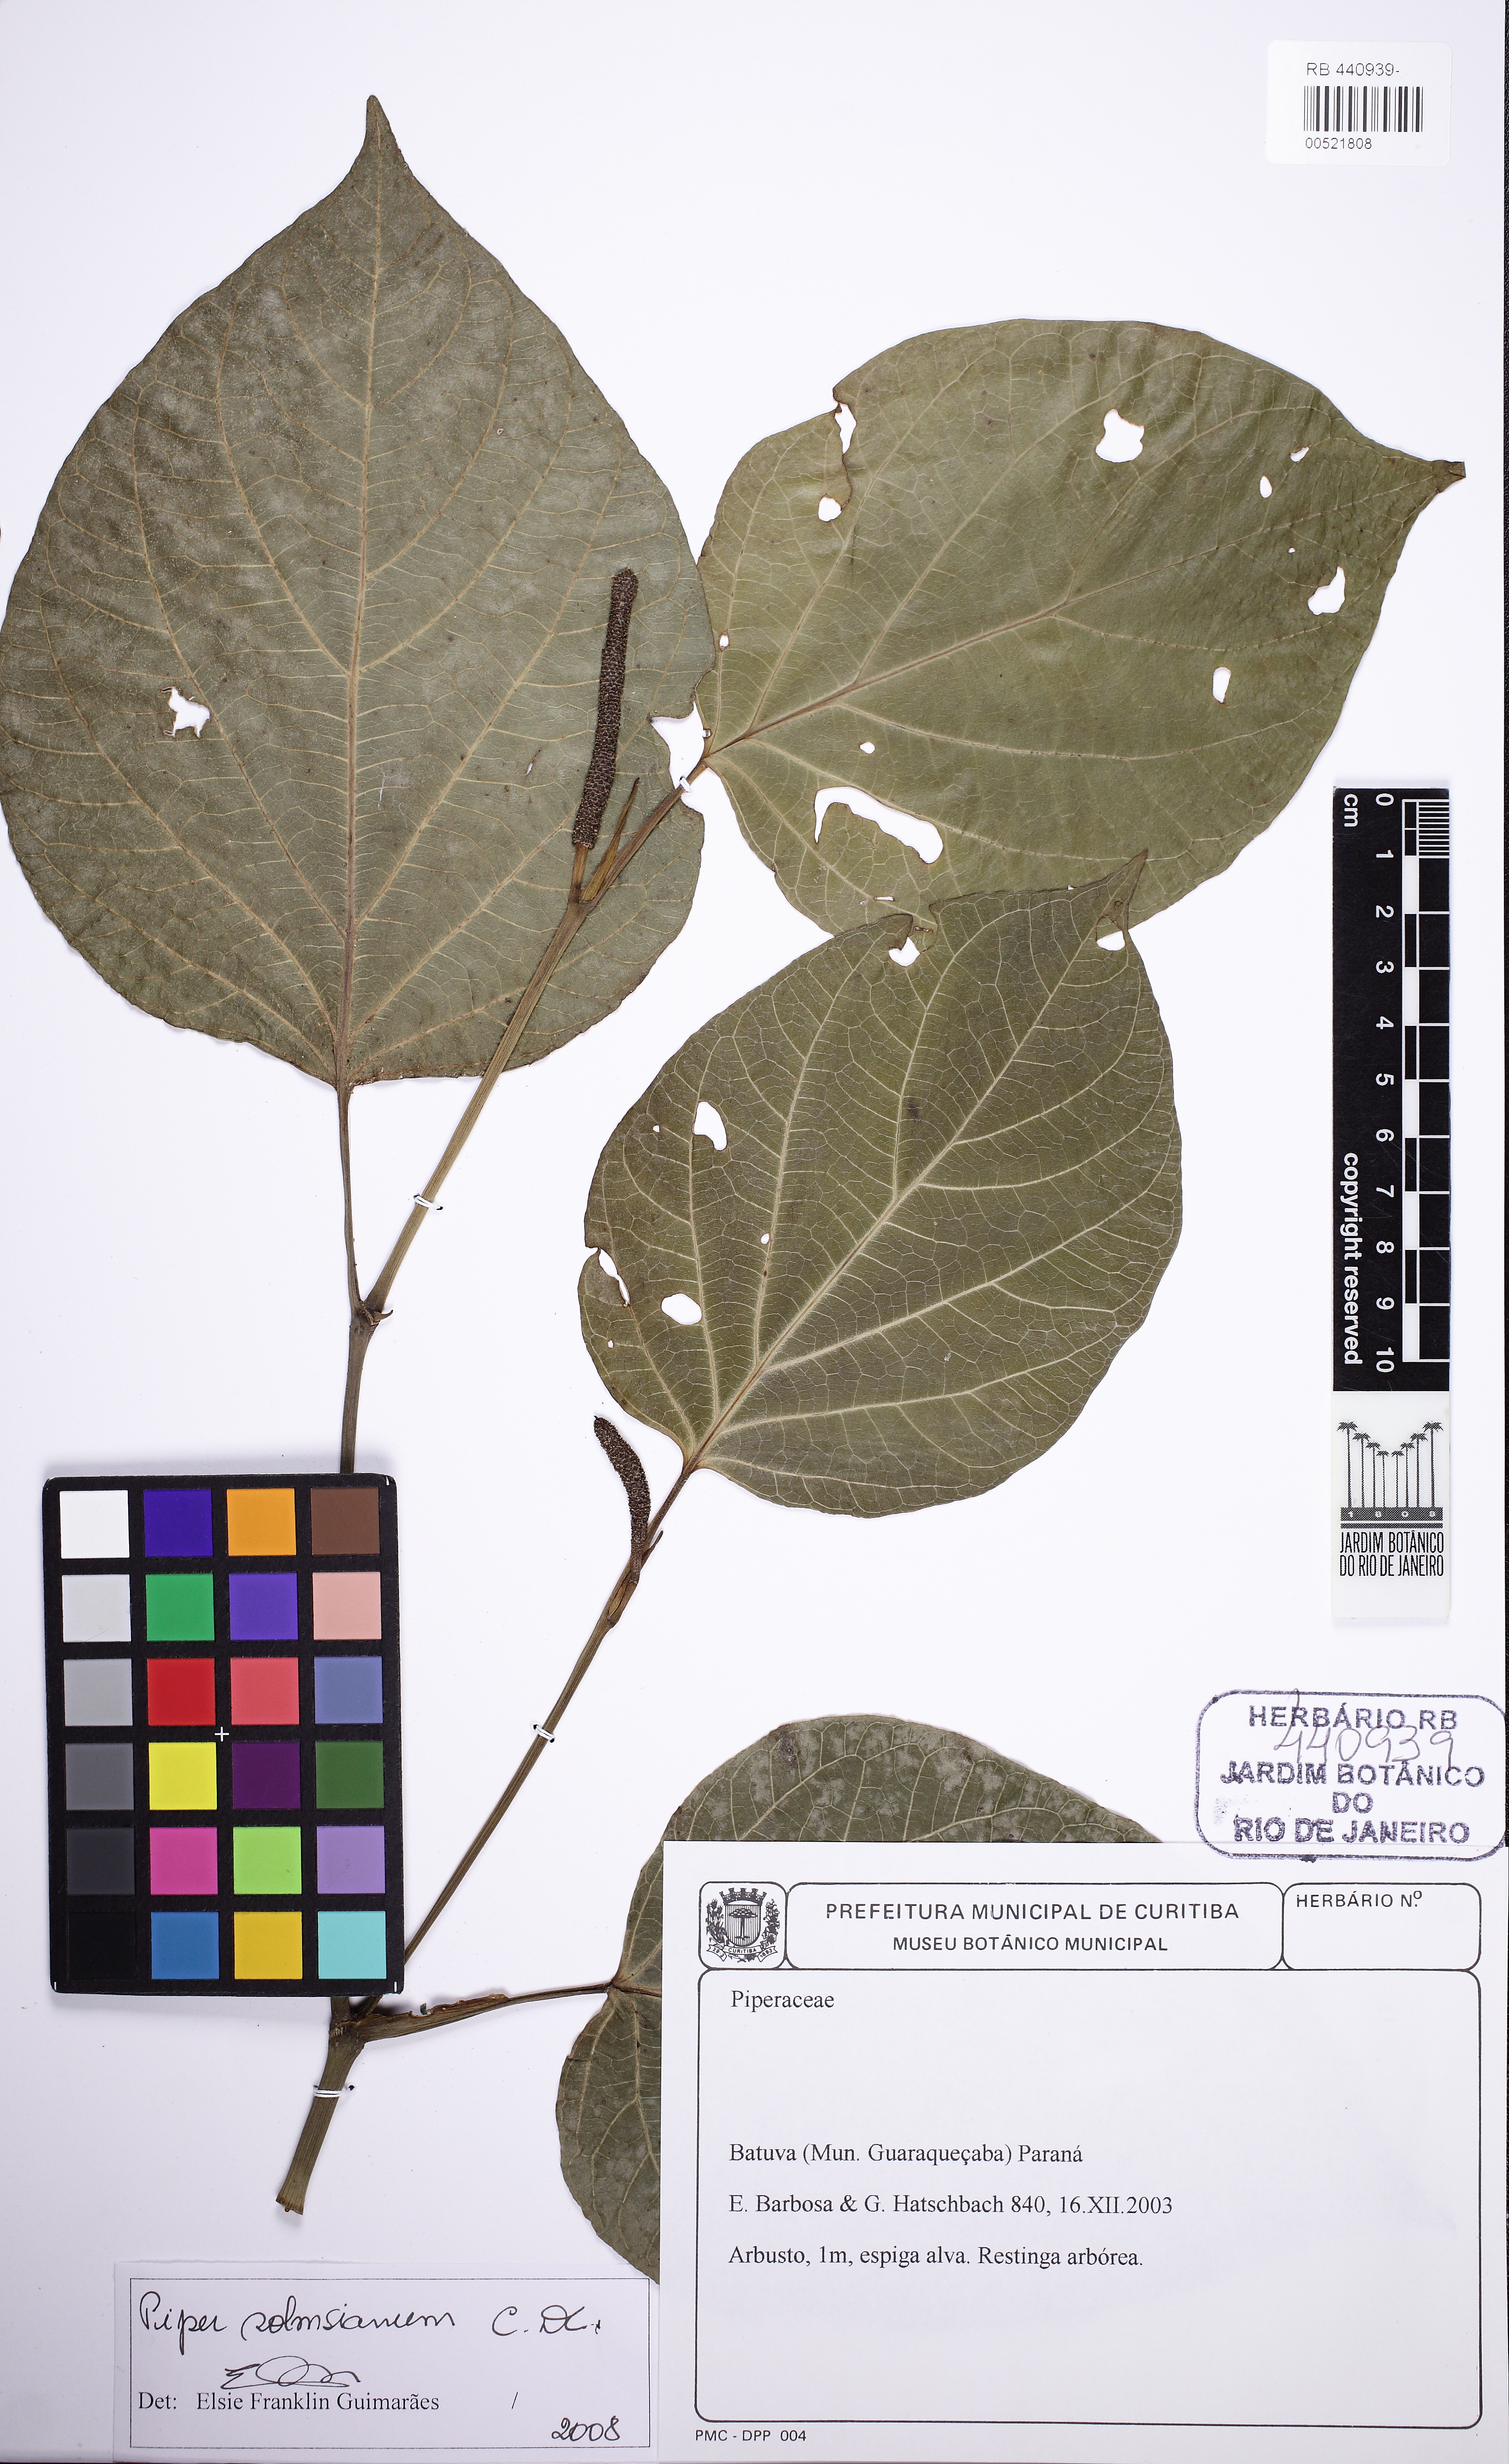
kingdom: Plantae
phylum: Tracheophyta
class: Magnoliopsida
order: Piperales
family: Piperaceae
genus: Piper
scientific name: Piper solmsianum
